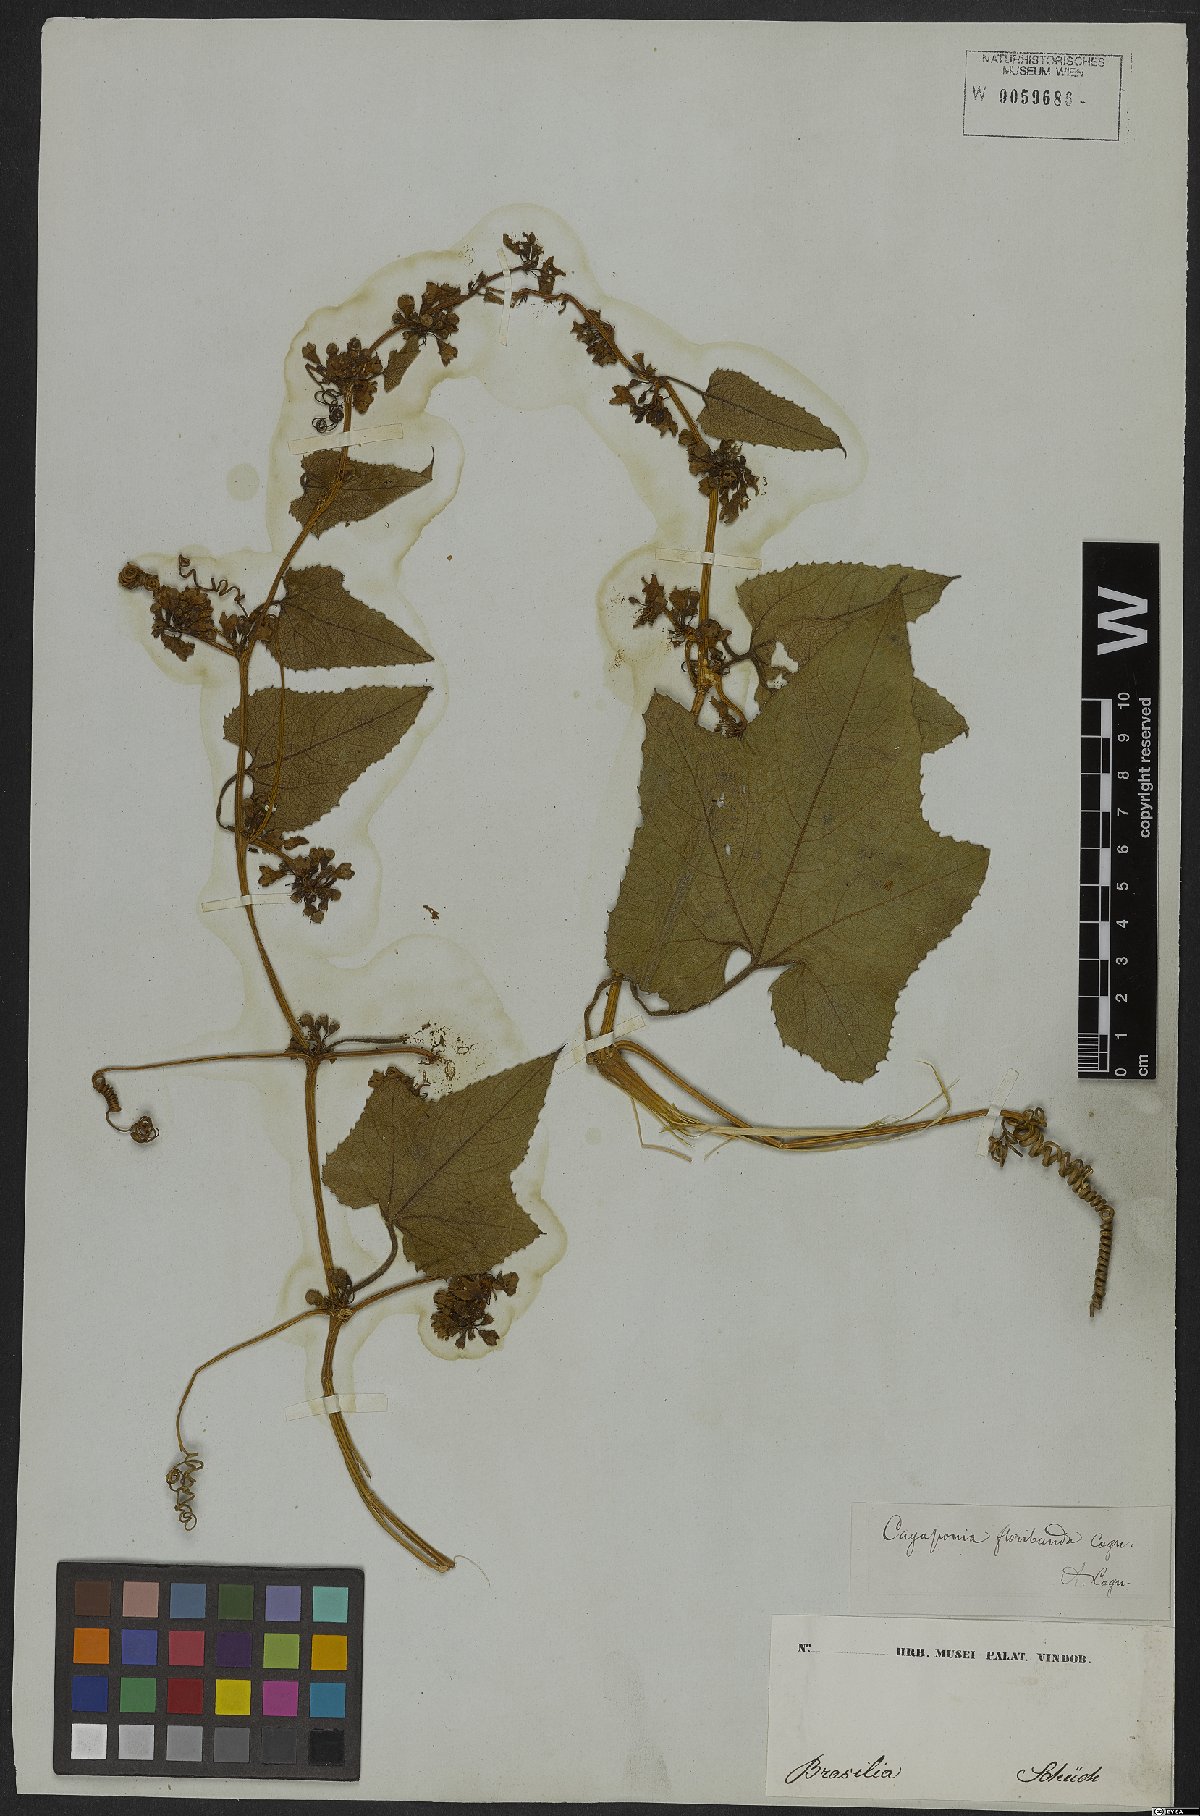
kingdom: Plantae
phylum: Tracheophyta
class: Magnoliopsida
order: Cucurbitales
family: Cucurbitaceae
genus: Cayaponia
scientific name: Cayaponia floribunda
